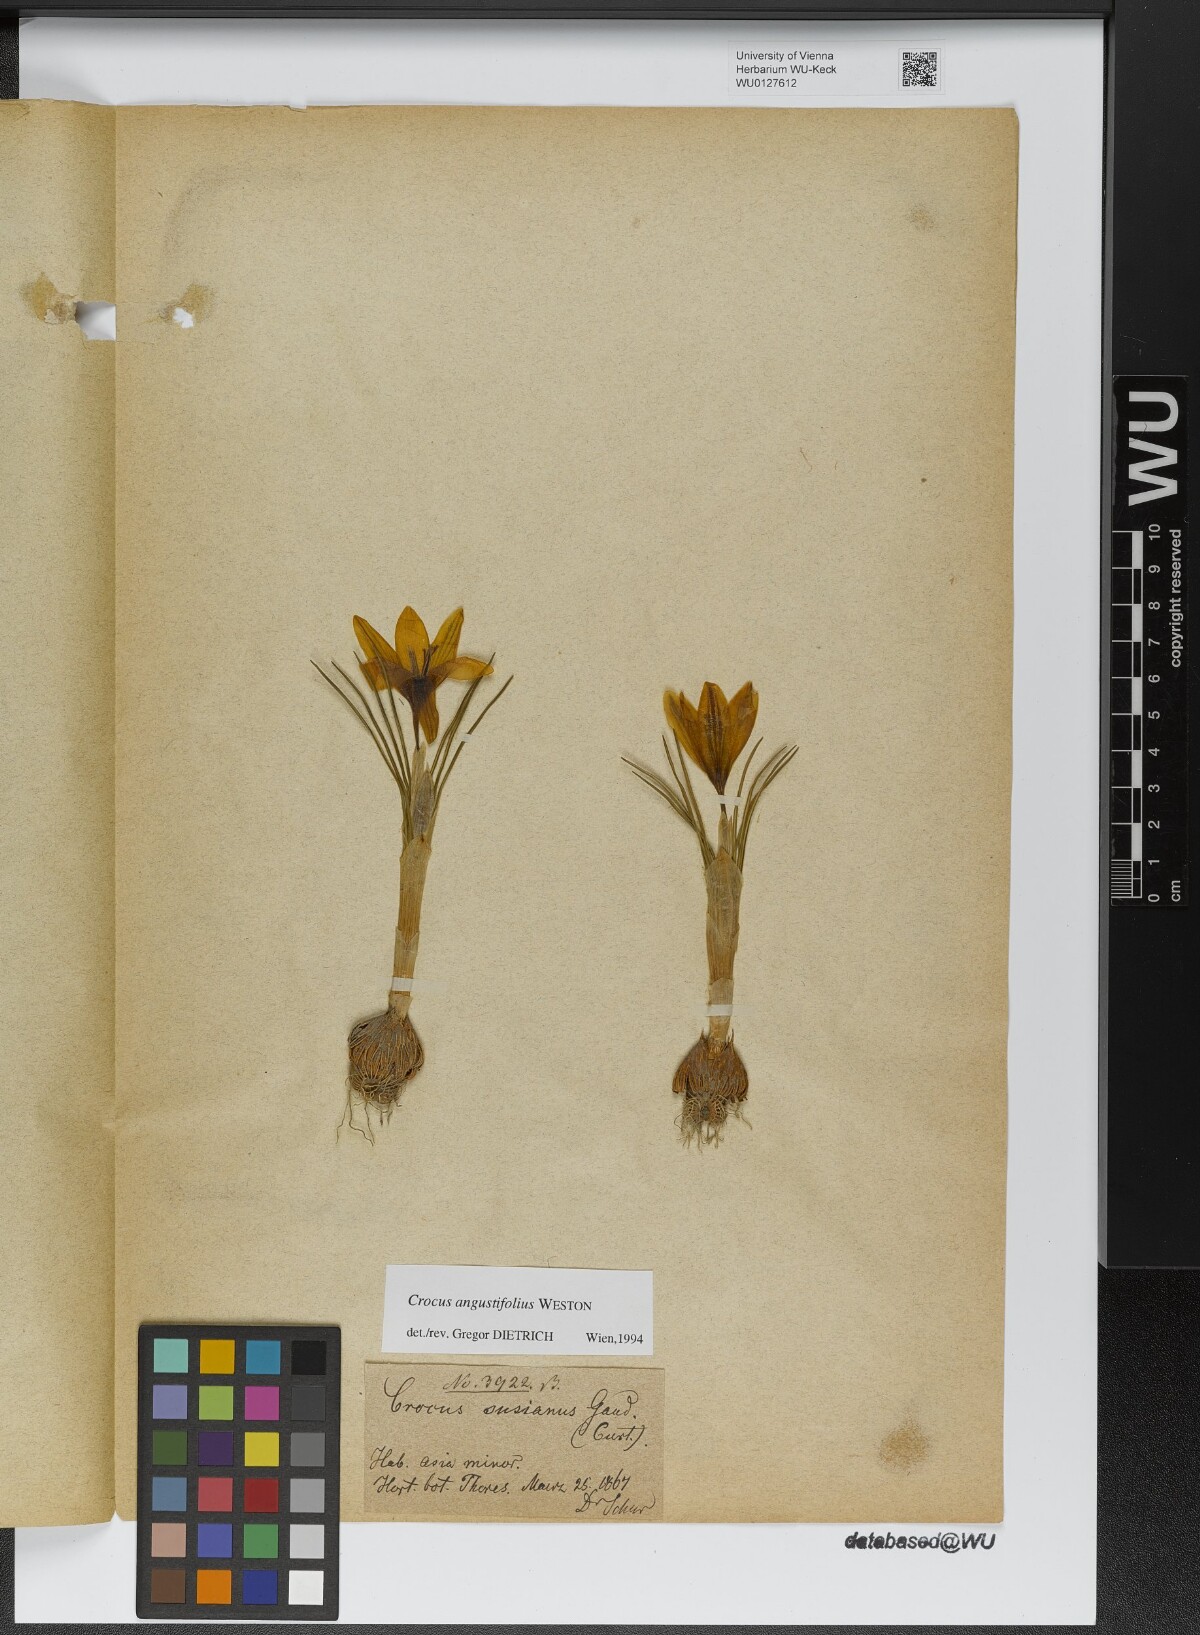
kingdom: Plantae
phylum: Tracheophyta
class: Liliopsida
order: Asparagales
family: Iridaceae
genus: Crocus
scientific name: Crocus angustifolius
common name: Cloth of gold
